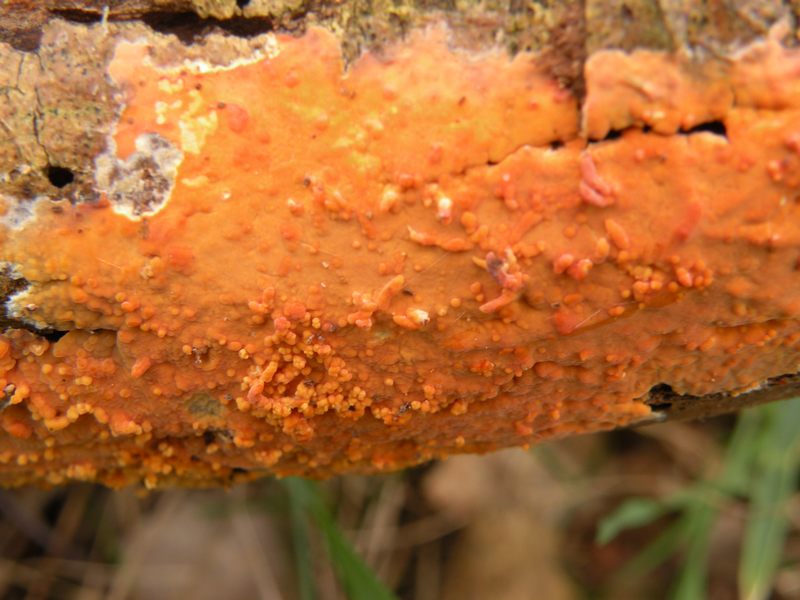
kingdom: Fungi
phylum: Basidiomycota
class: Agaricomycetes
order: Russulales
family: Peniophoraceae
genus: Peniophora
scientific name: Peniophora incarnata
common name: laksefarvet voksskind
